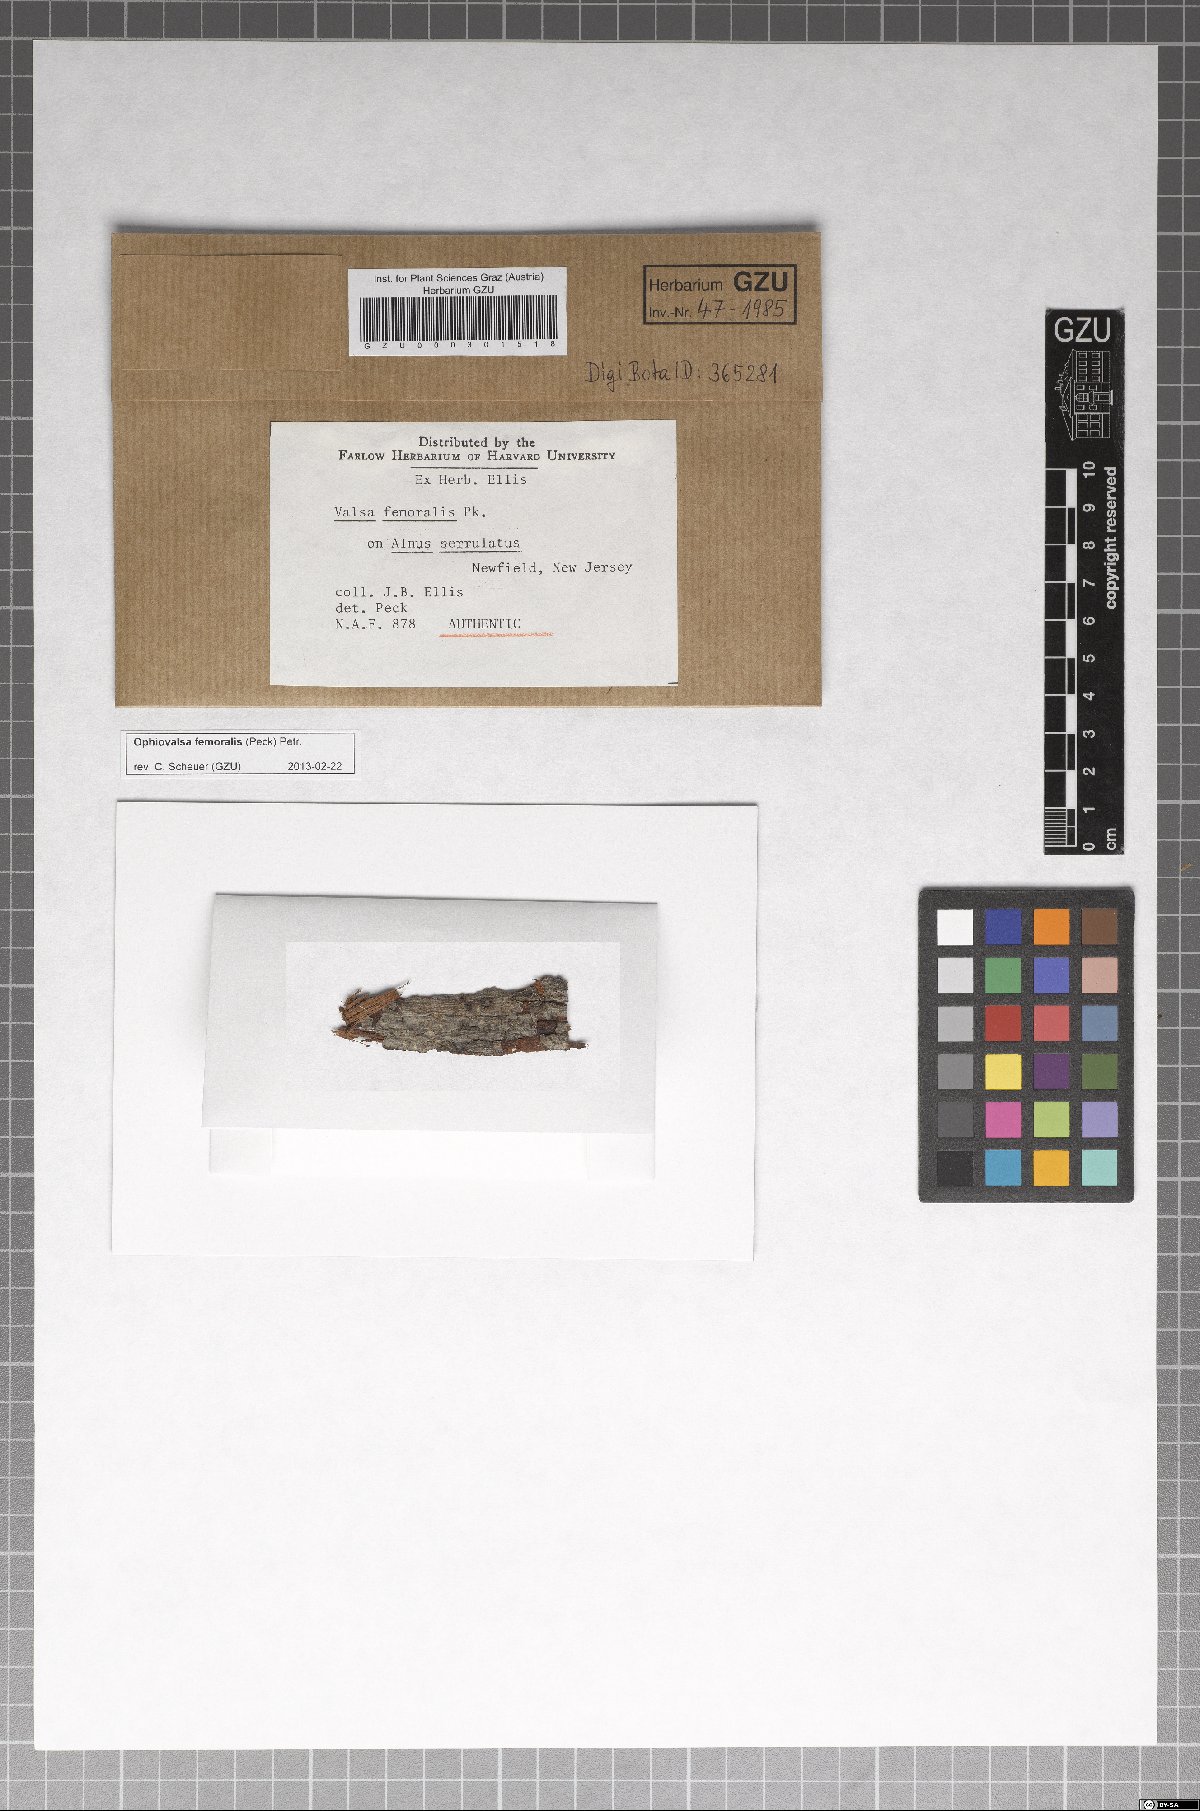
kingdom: Fungi
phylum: Ascomycota
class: Sordariomycetes
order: Diaporthales
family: Gnomoniaceae
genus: Cryptosporella
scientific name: Cryptosporella femoralis
